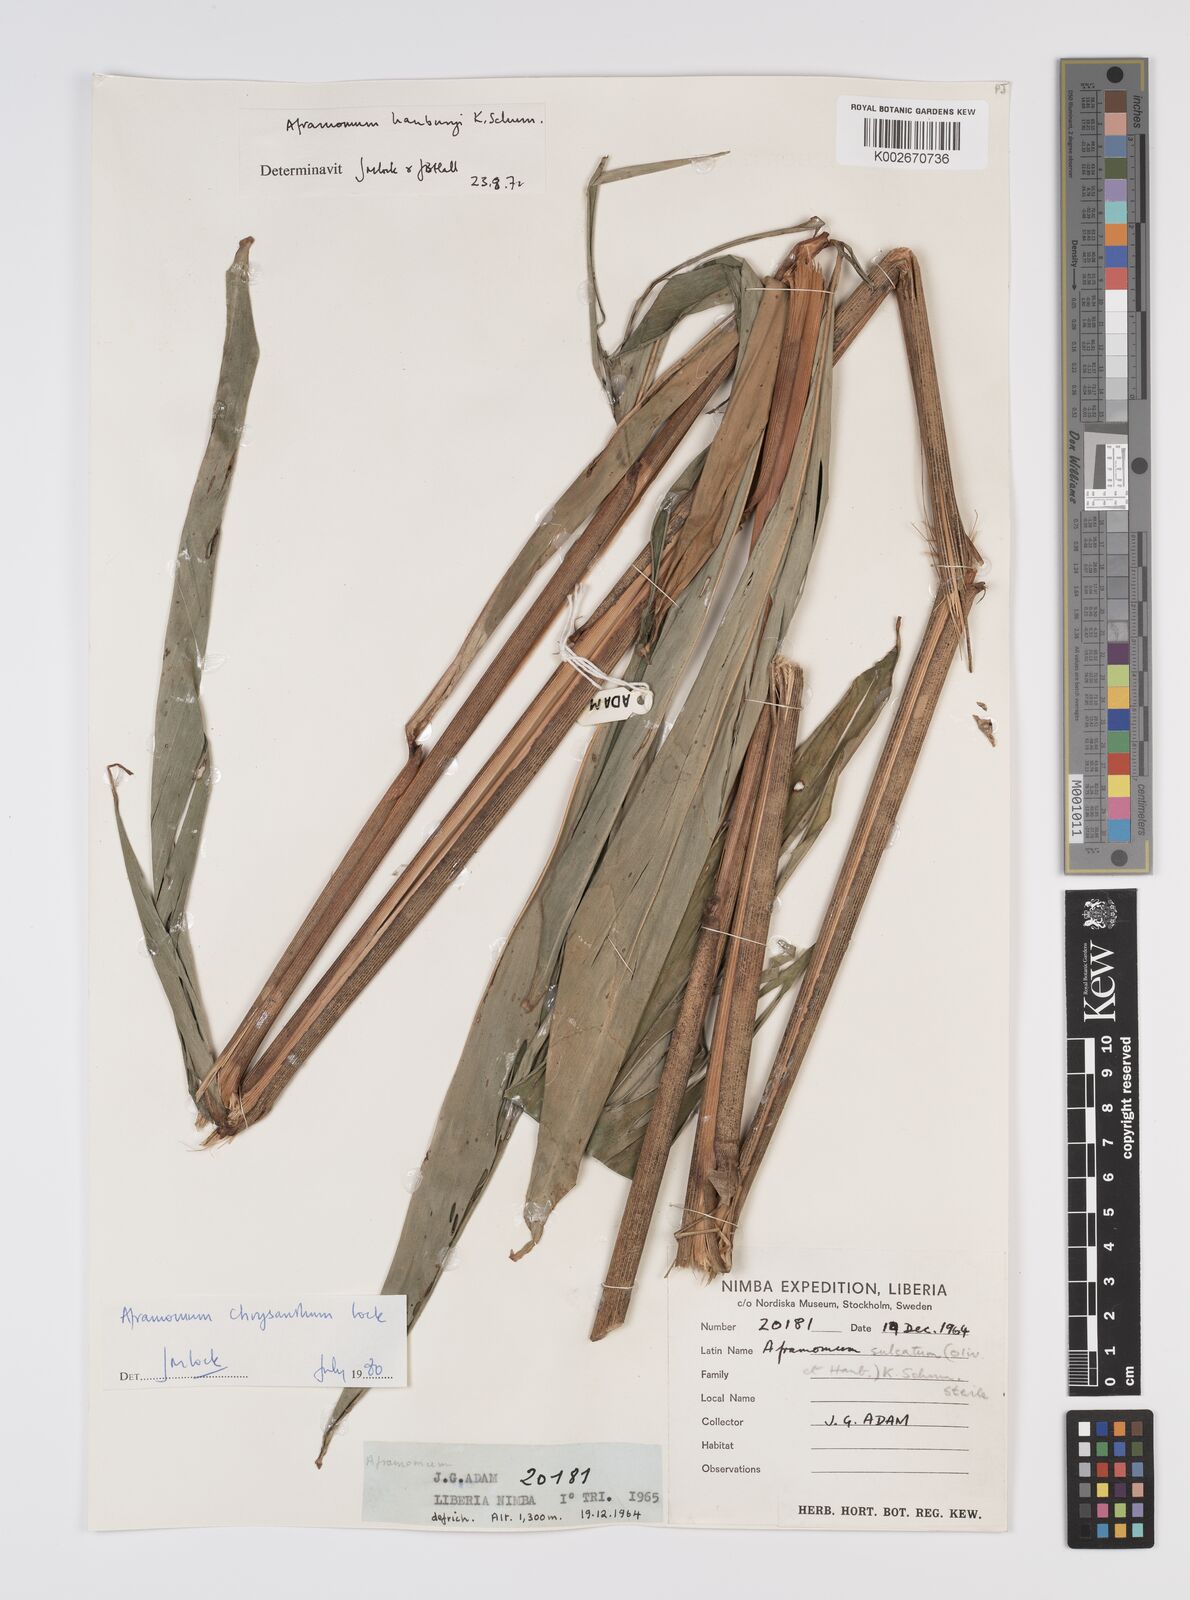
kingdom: Plantae
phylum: Tracheophyta
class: Liliopsida
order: Zingiberales
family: Zingiberaceae
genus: Aframomum
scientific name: Aframomum chrysanthum
